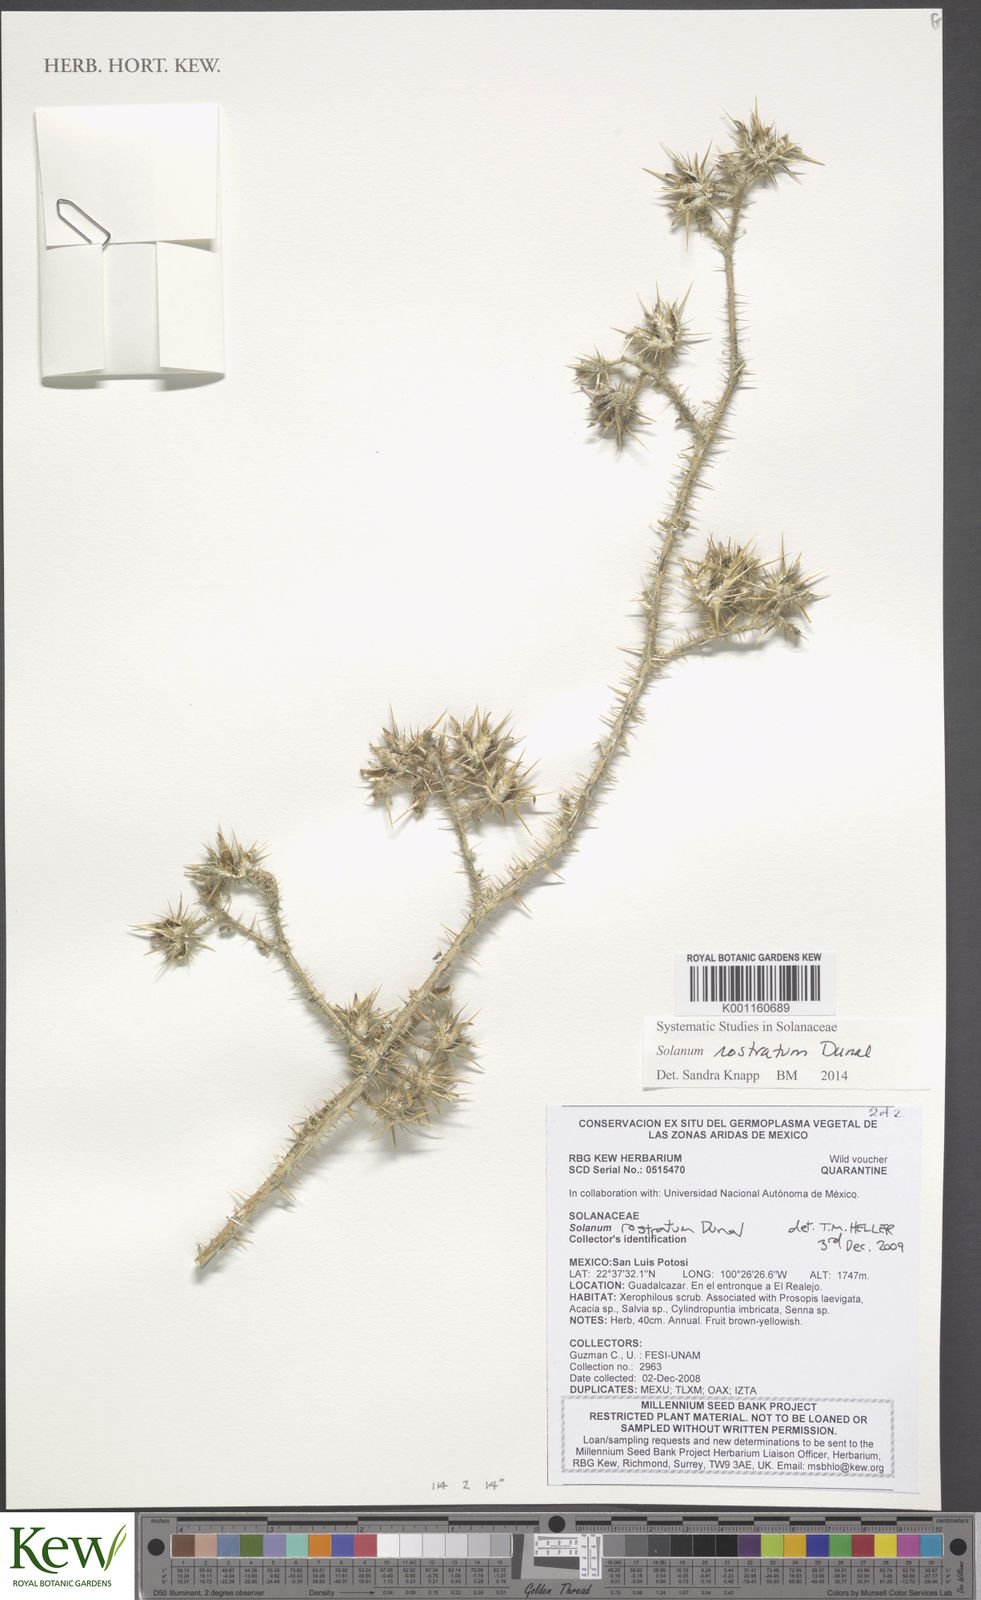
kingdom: Plantae
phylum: Tracheophyta
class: Magnoliopsida
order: Solanales
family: Solanaceae
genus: Solanum
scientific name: Solanum angustifolium
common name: Buffalobur nightshade
